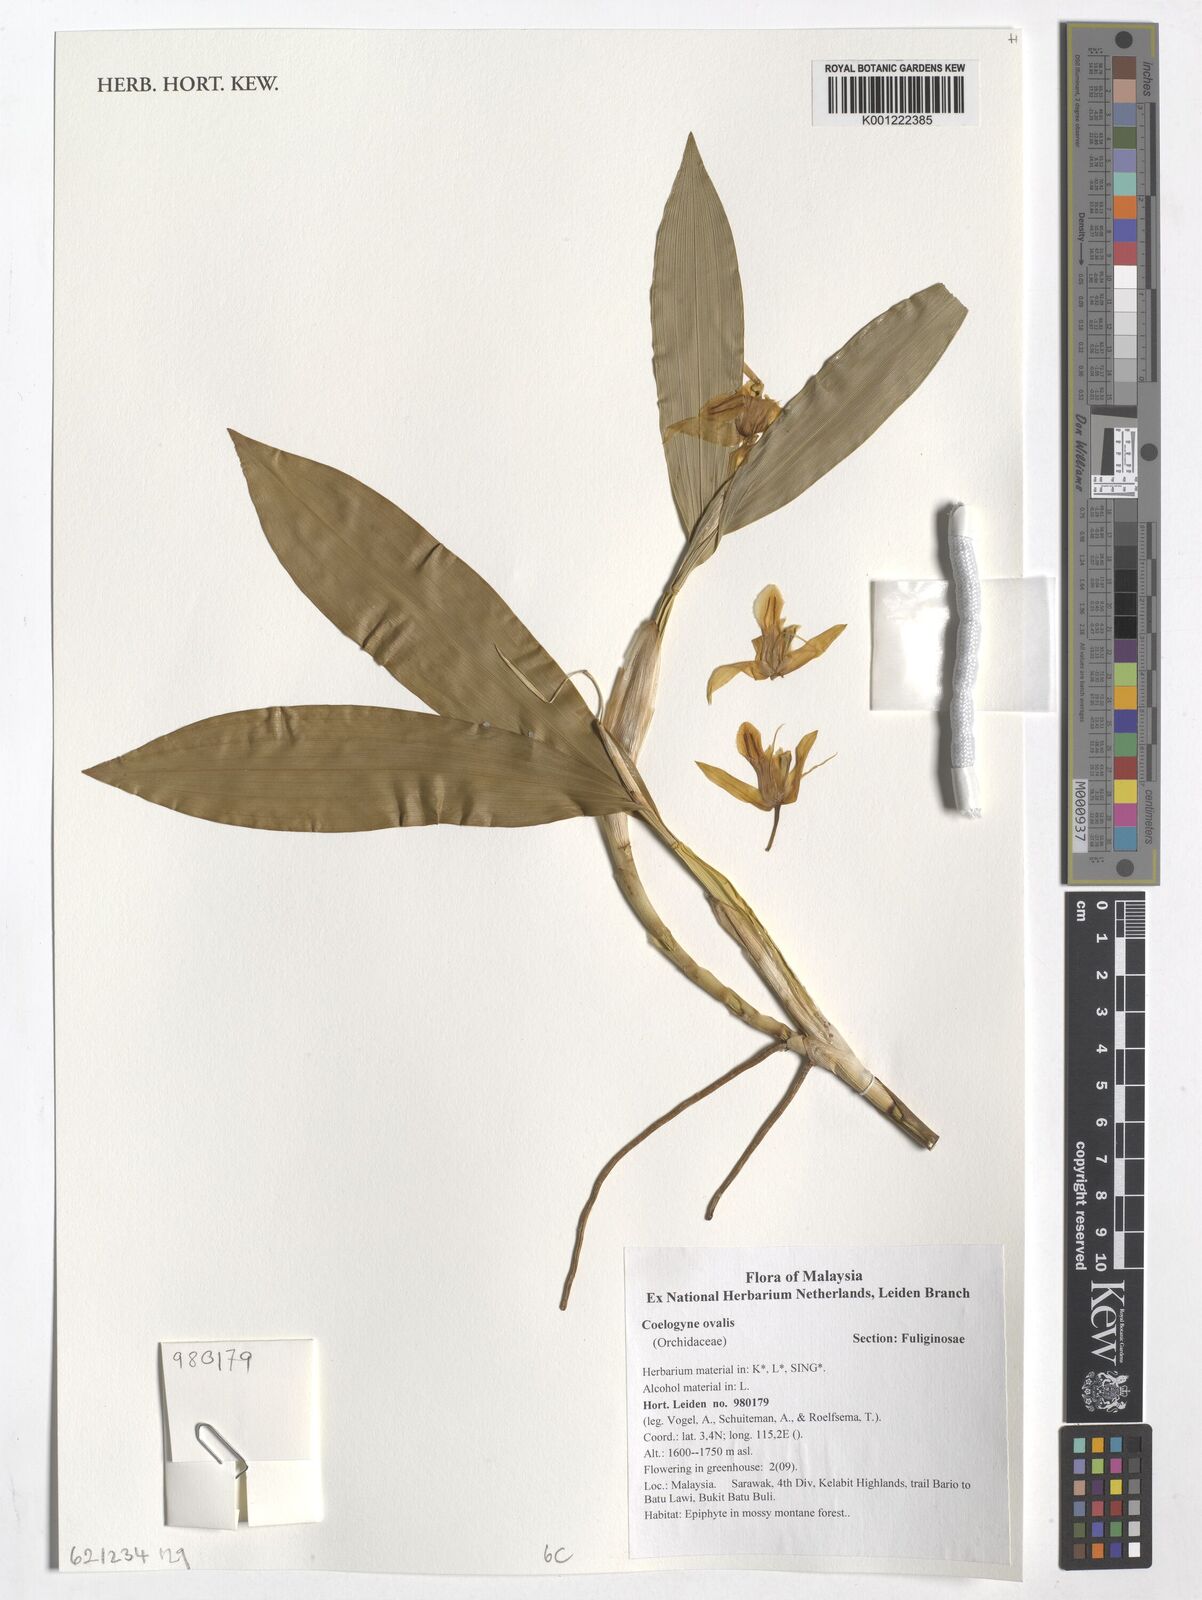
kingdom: Plantae
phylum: Tracheophyta
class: Liliopsida
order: Asparagales
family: Orchidaceae
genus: Coelogyne
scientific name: Coelogyne ovalis
